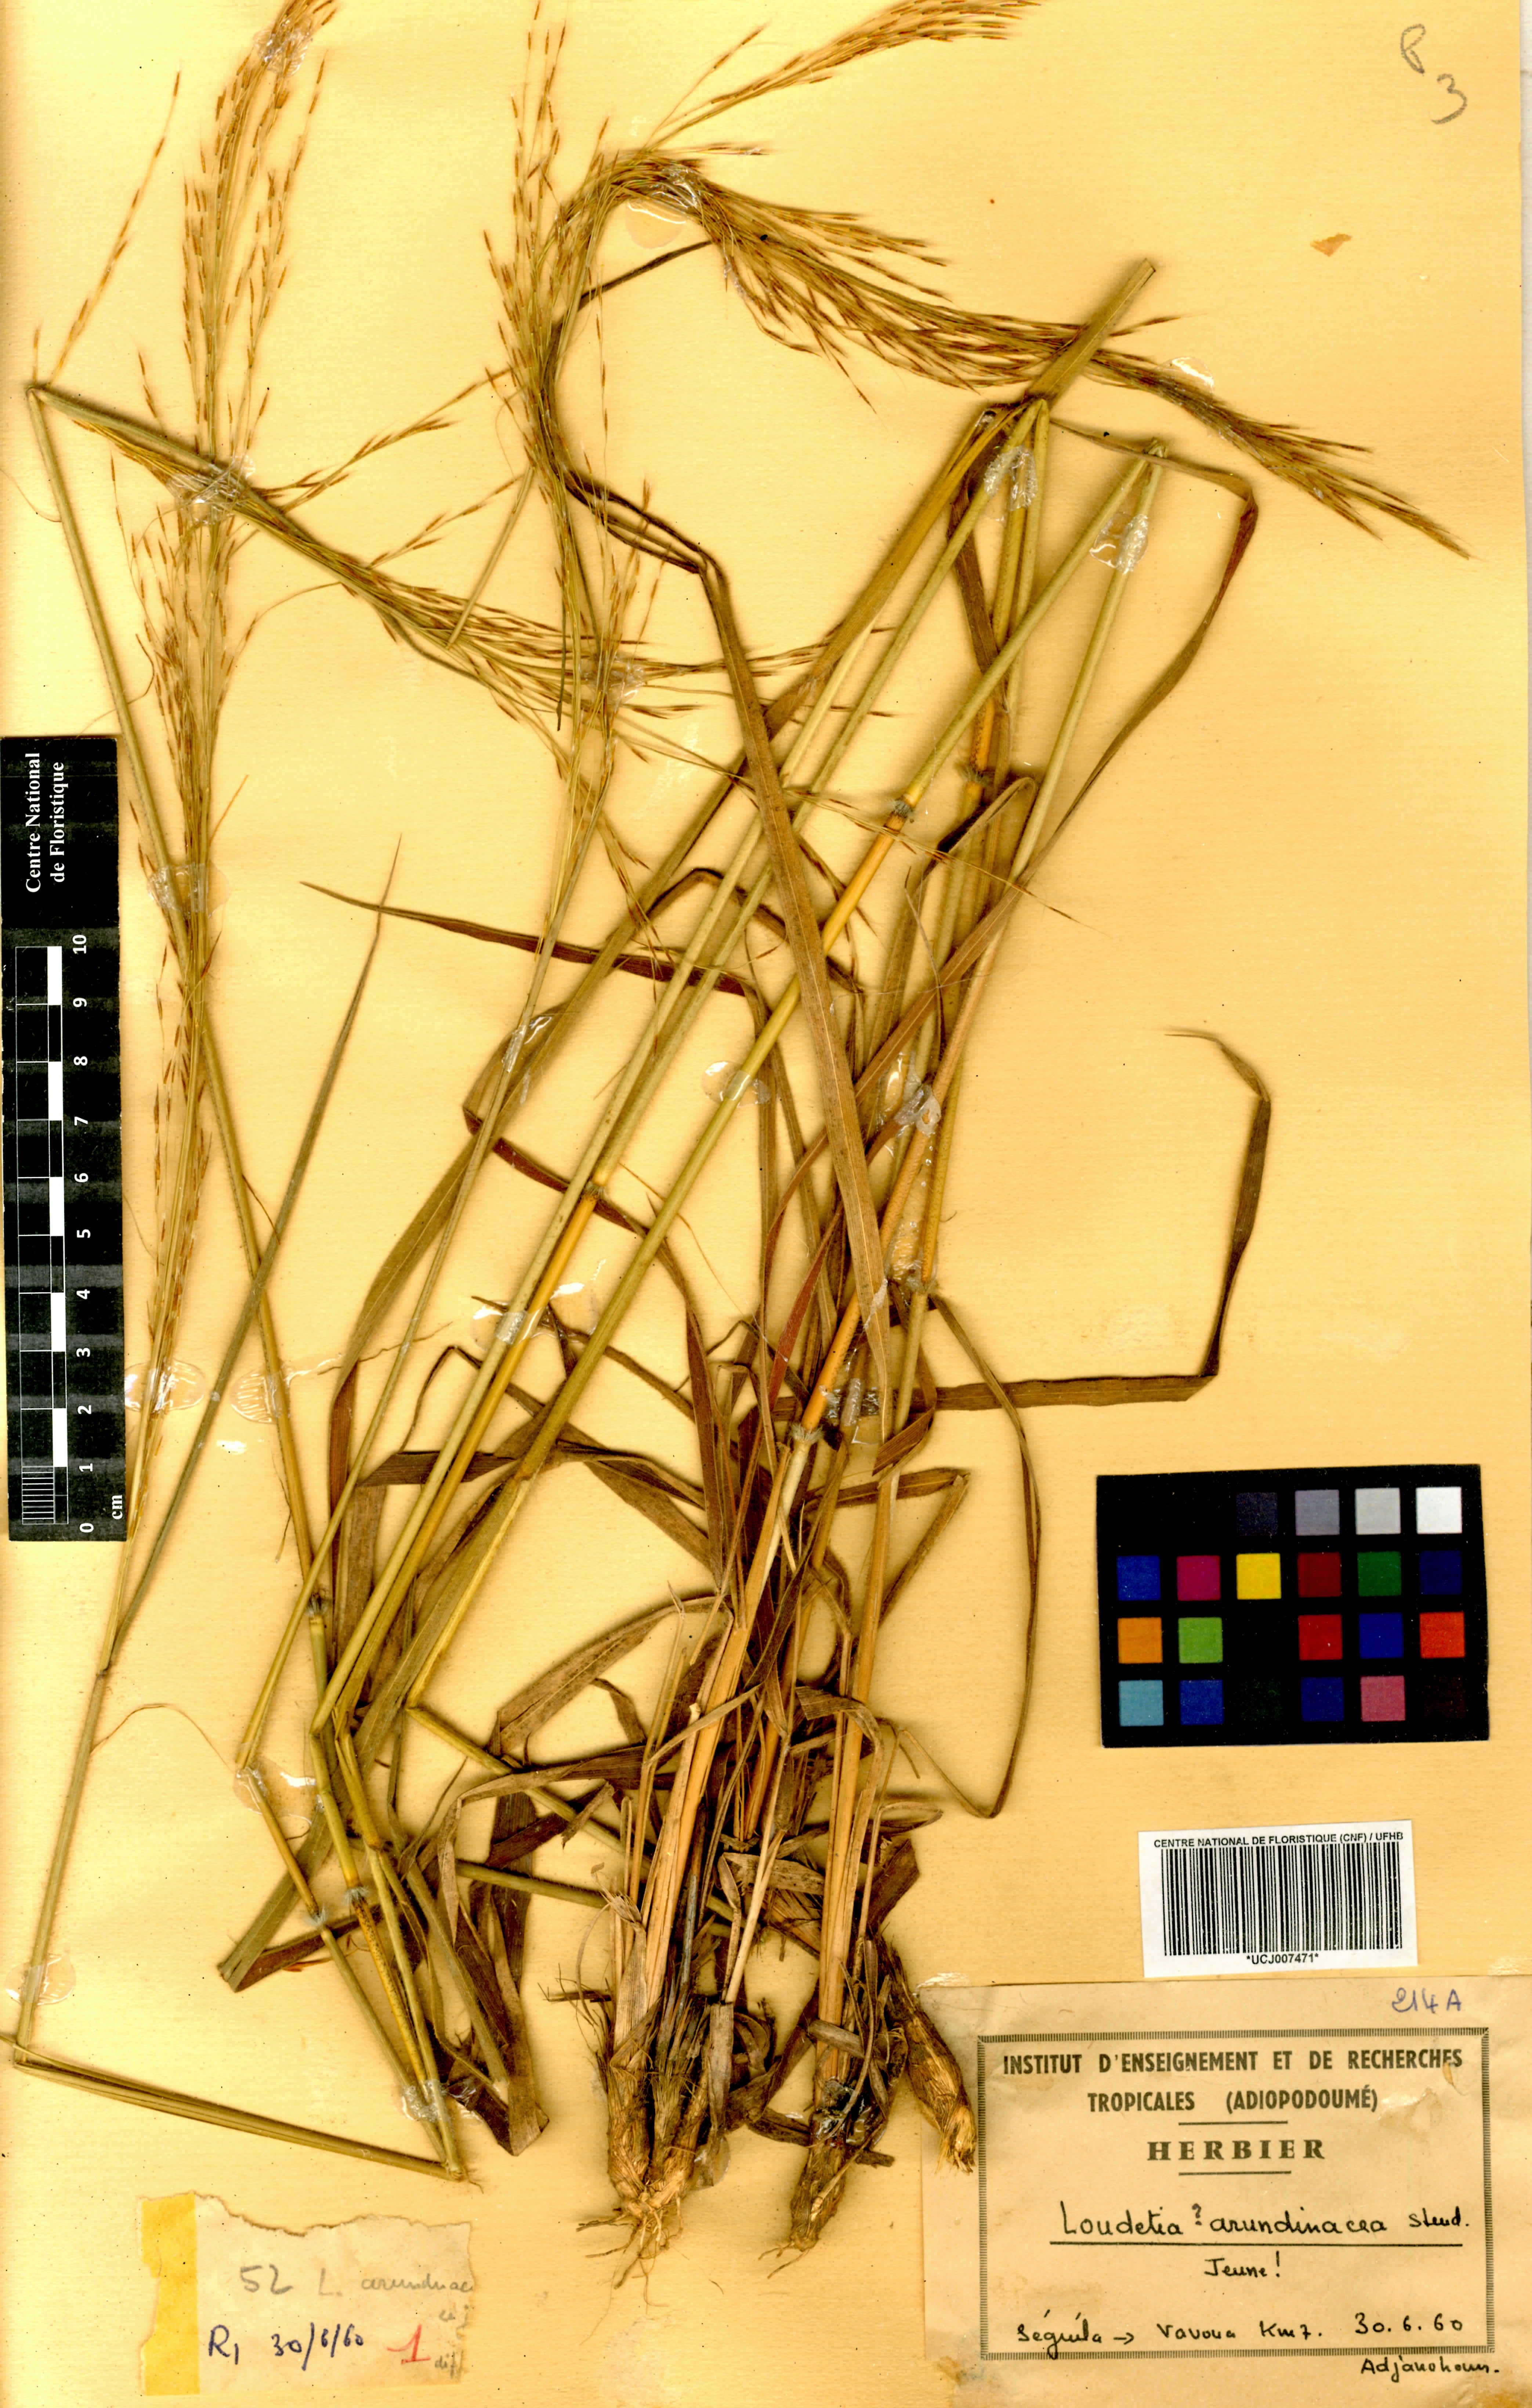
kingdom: Plantae
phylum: Tracheophyta
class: Liliopsida
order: Poales
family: Poaceae
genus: Loudetia
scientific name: Loudetia arundinacea
